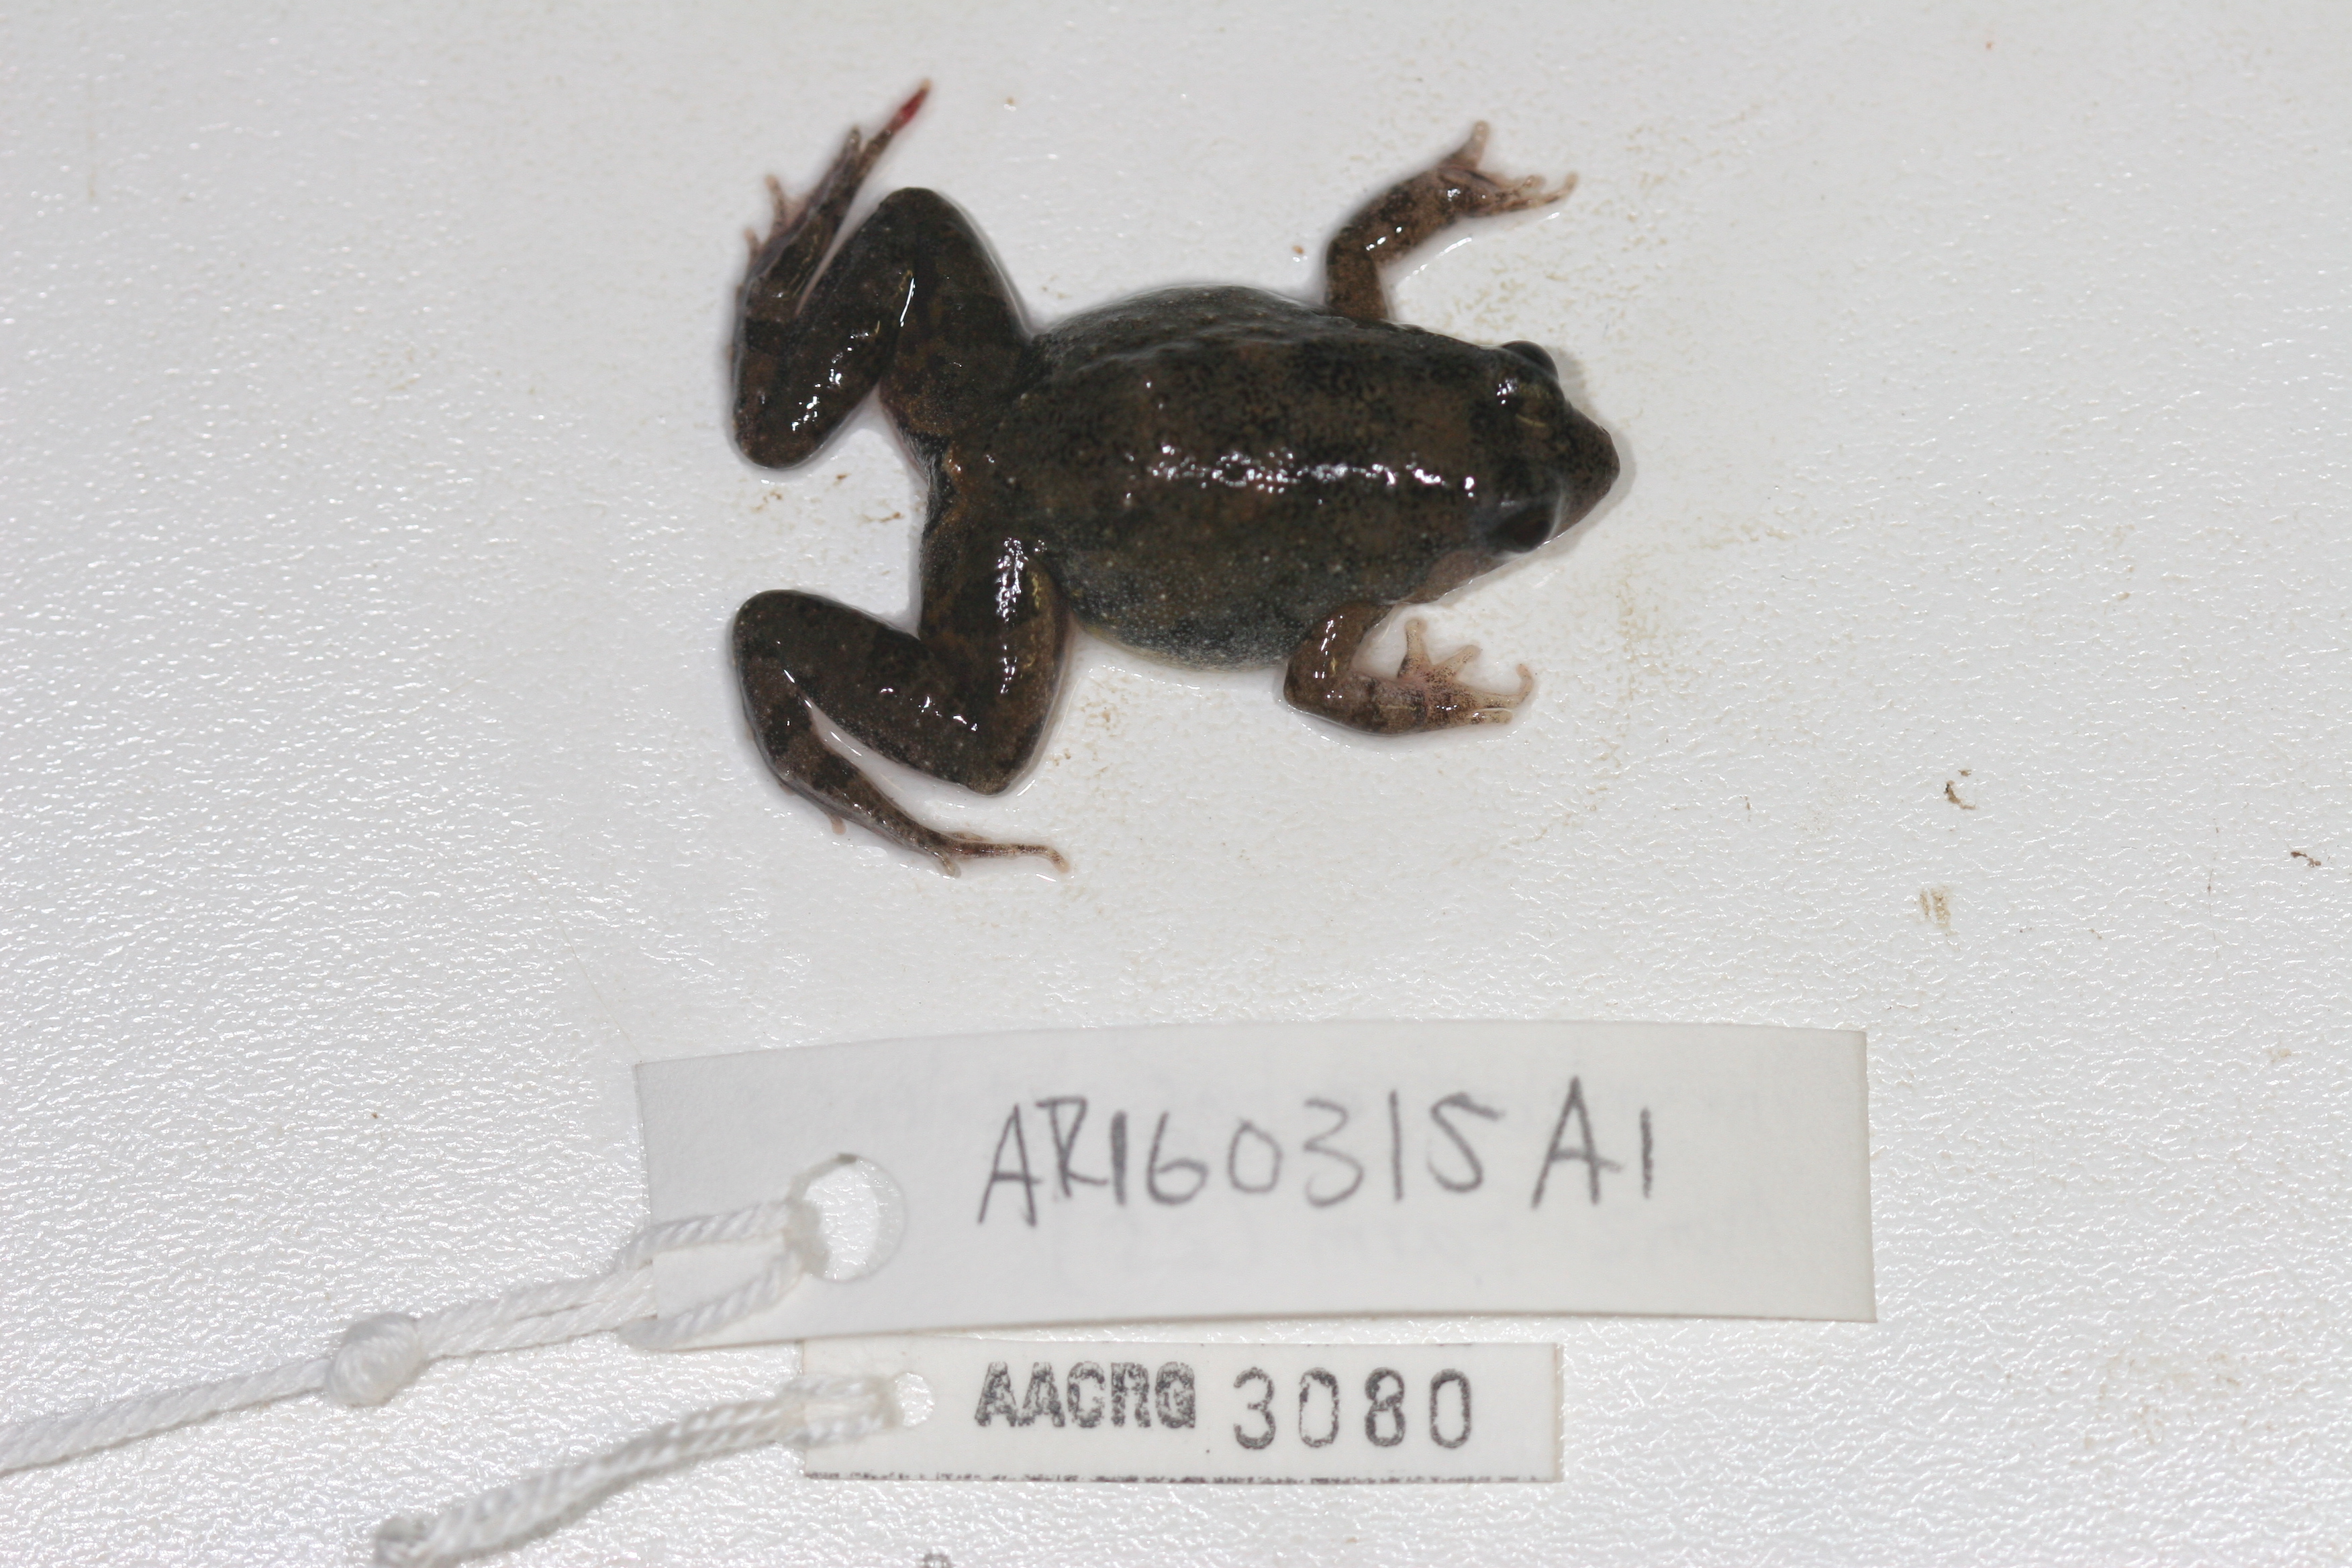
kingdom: Animalia
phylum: Chordata
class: Amphibia
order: Anura
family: Phrynobatrachidae
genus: Phrynobatrachus
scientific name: Phrynobatrachus natalensis
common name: Snoring puddle frog
